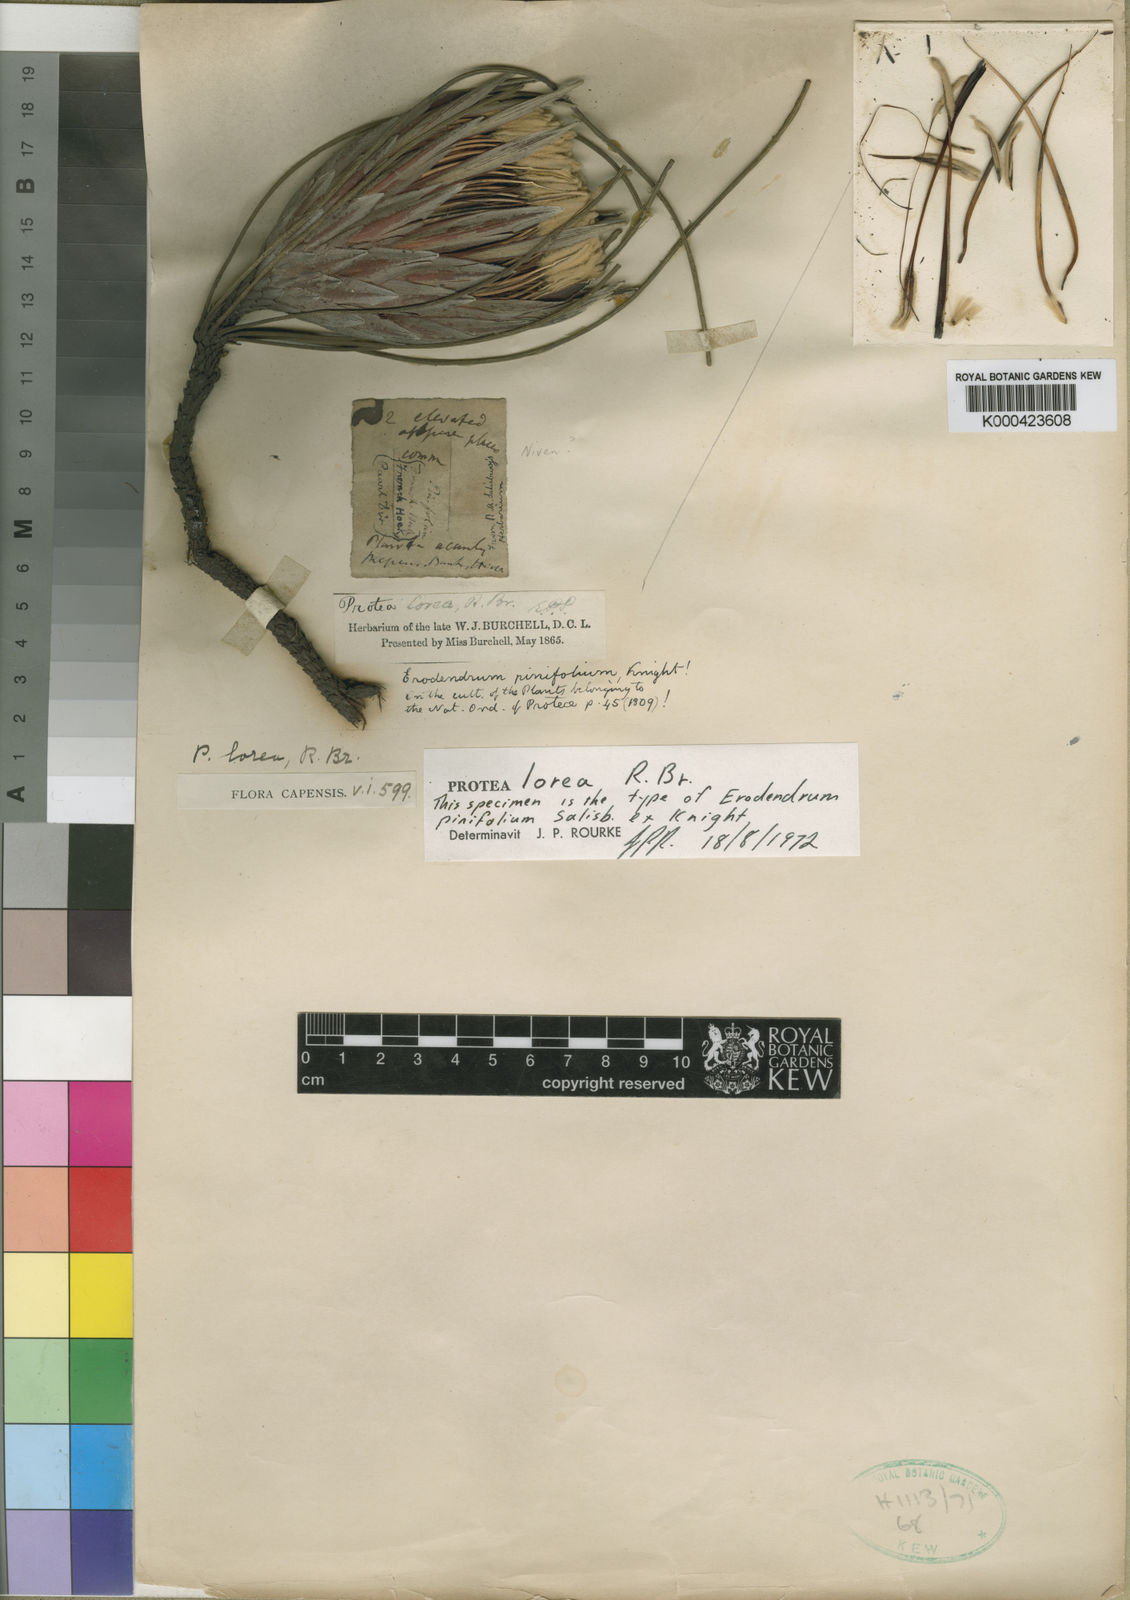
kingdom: Plantae
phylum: Tracheophyta
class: Magnoliopsida
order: Proteales
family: Proteaceae
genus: Protea
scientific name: Protea lorea
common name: Thong-leaf sugarbush
